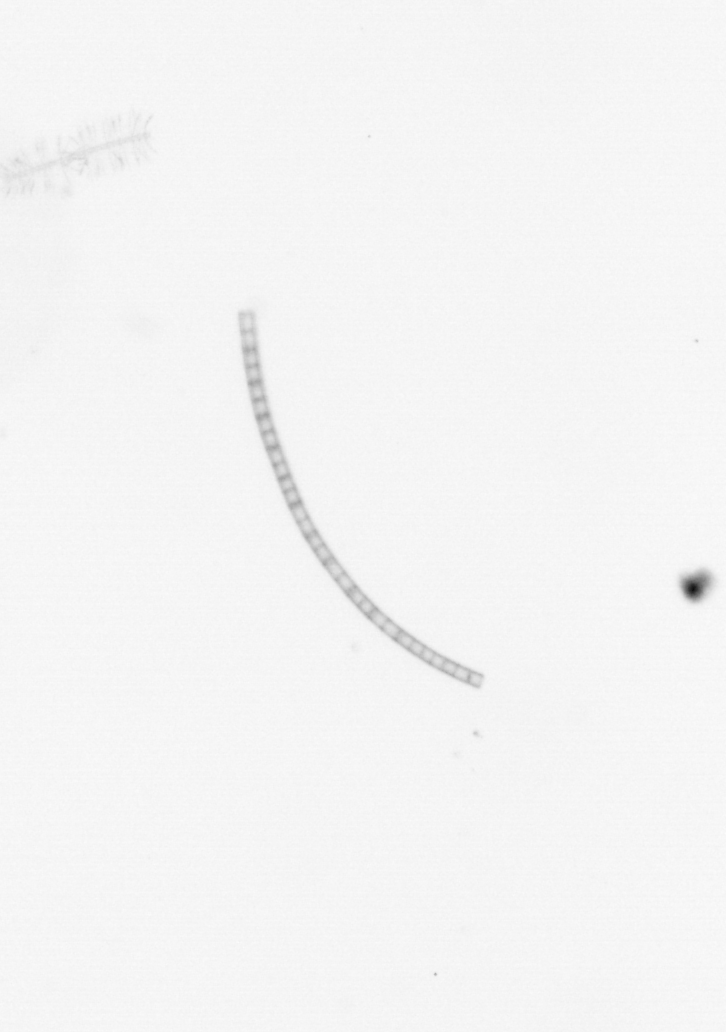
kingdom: Chromista
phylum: Ochrophyta
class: Bacillariophyceae
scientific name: Bacillariophyceae
